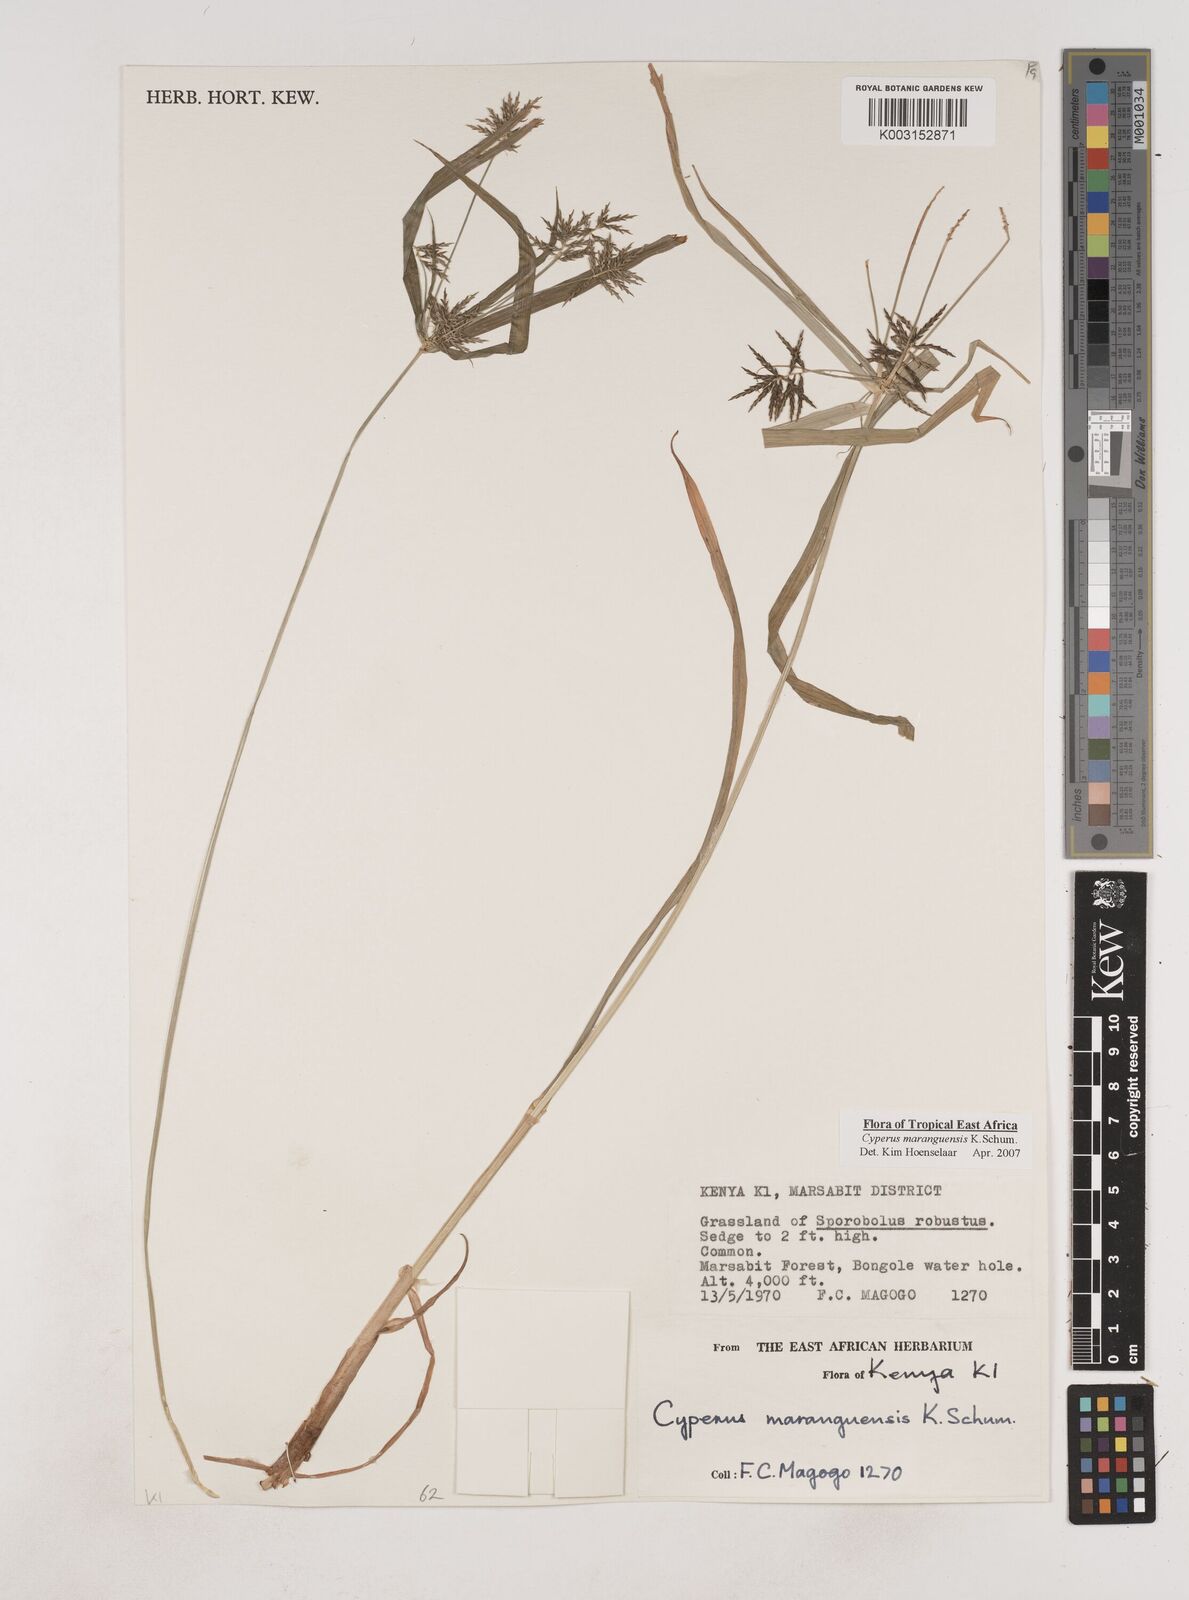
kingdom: Plantae
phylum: Tracheophyta
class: Liliopsida
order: Poales
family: Cyperaceae
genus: Cyperus
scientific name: Cyperus maranguensis
